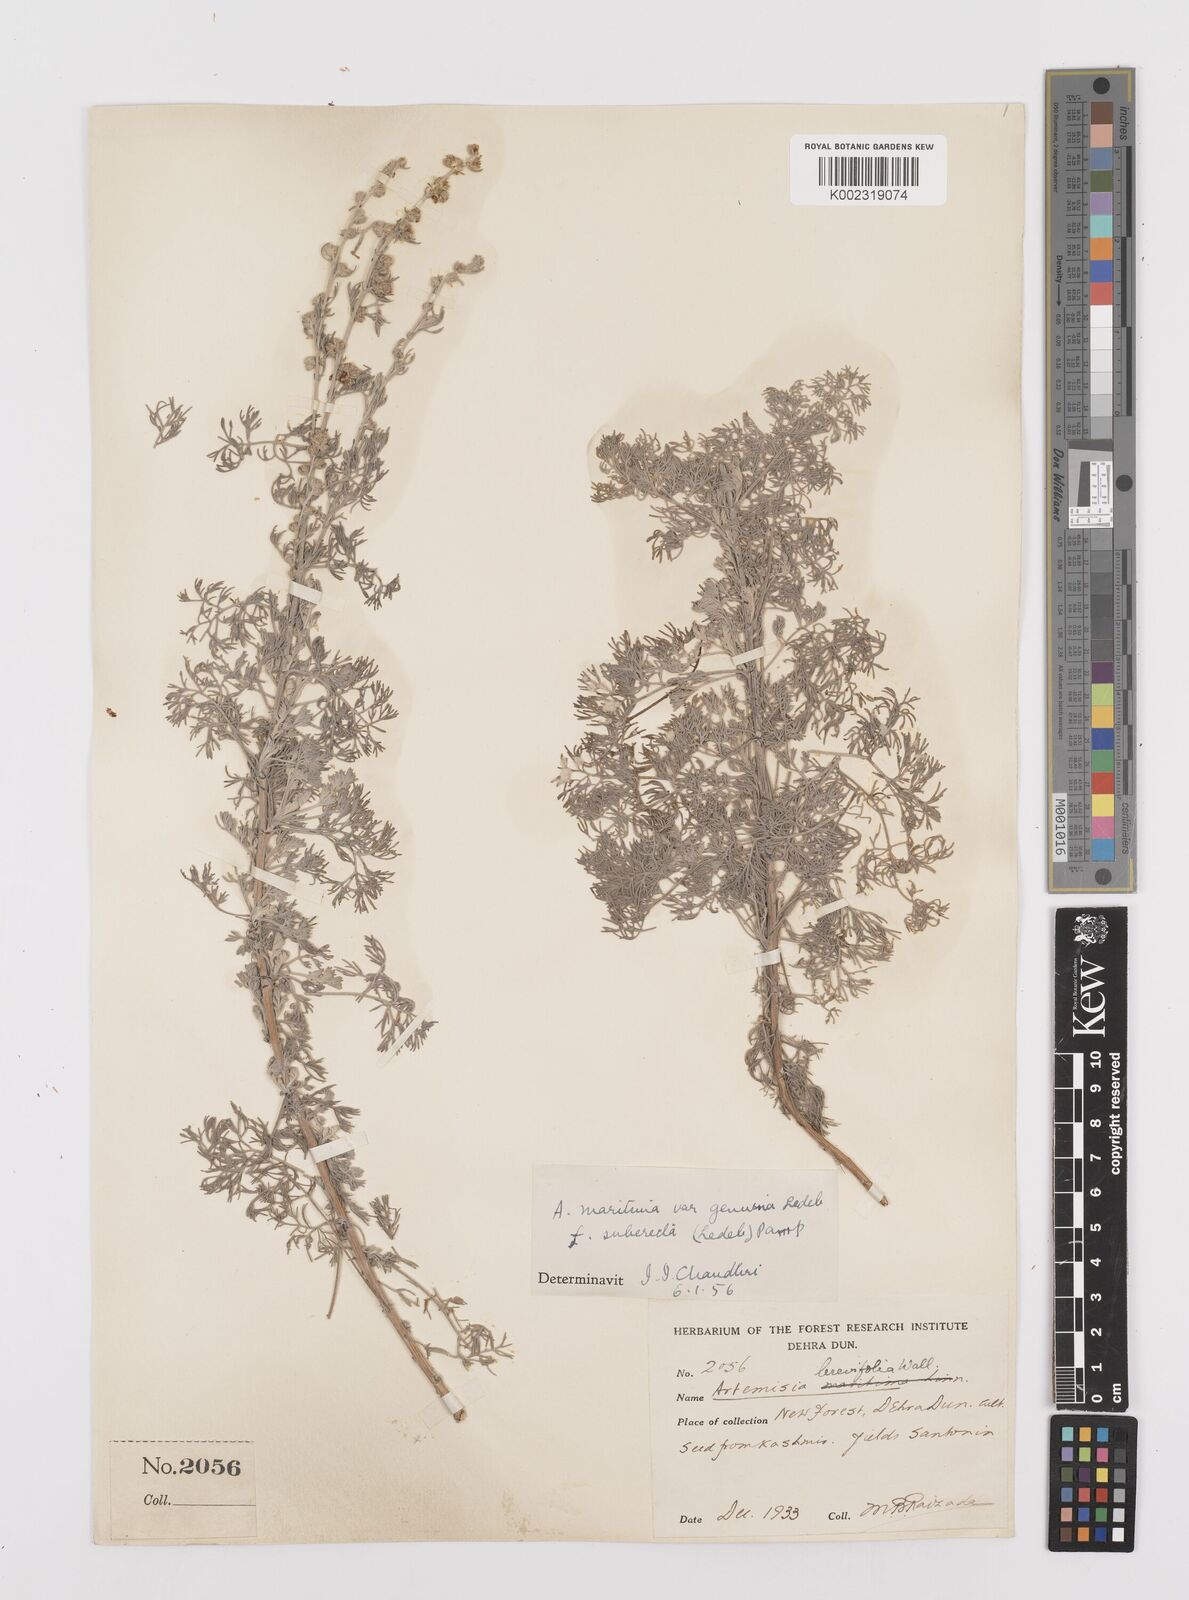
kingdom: Plantae
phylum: Tracheophyta
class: Magnoliopsida
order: Asterales
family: Asteraceae
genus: Artemisia
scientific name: Artemisia compacta
